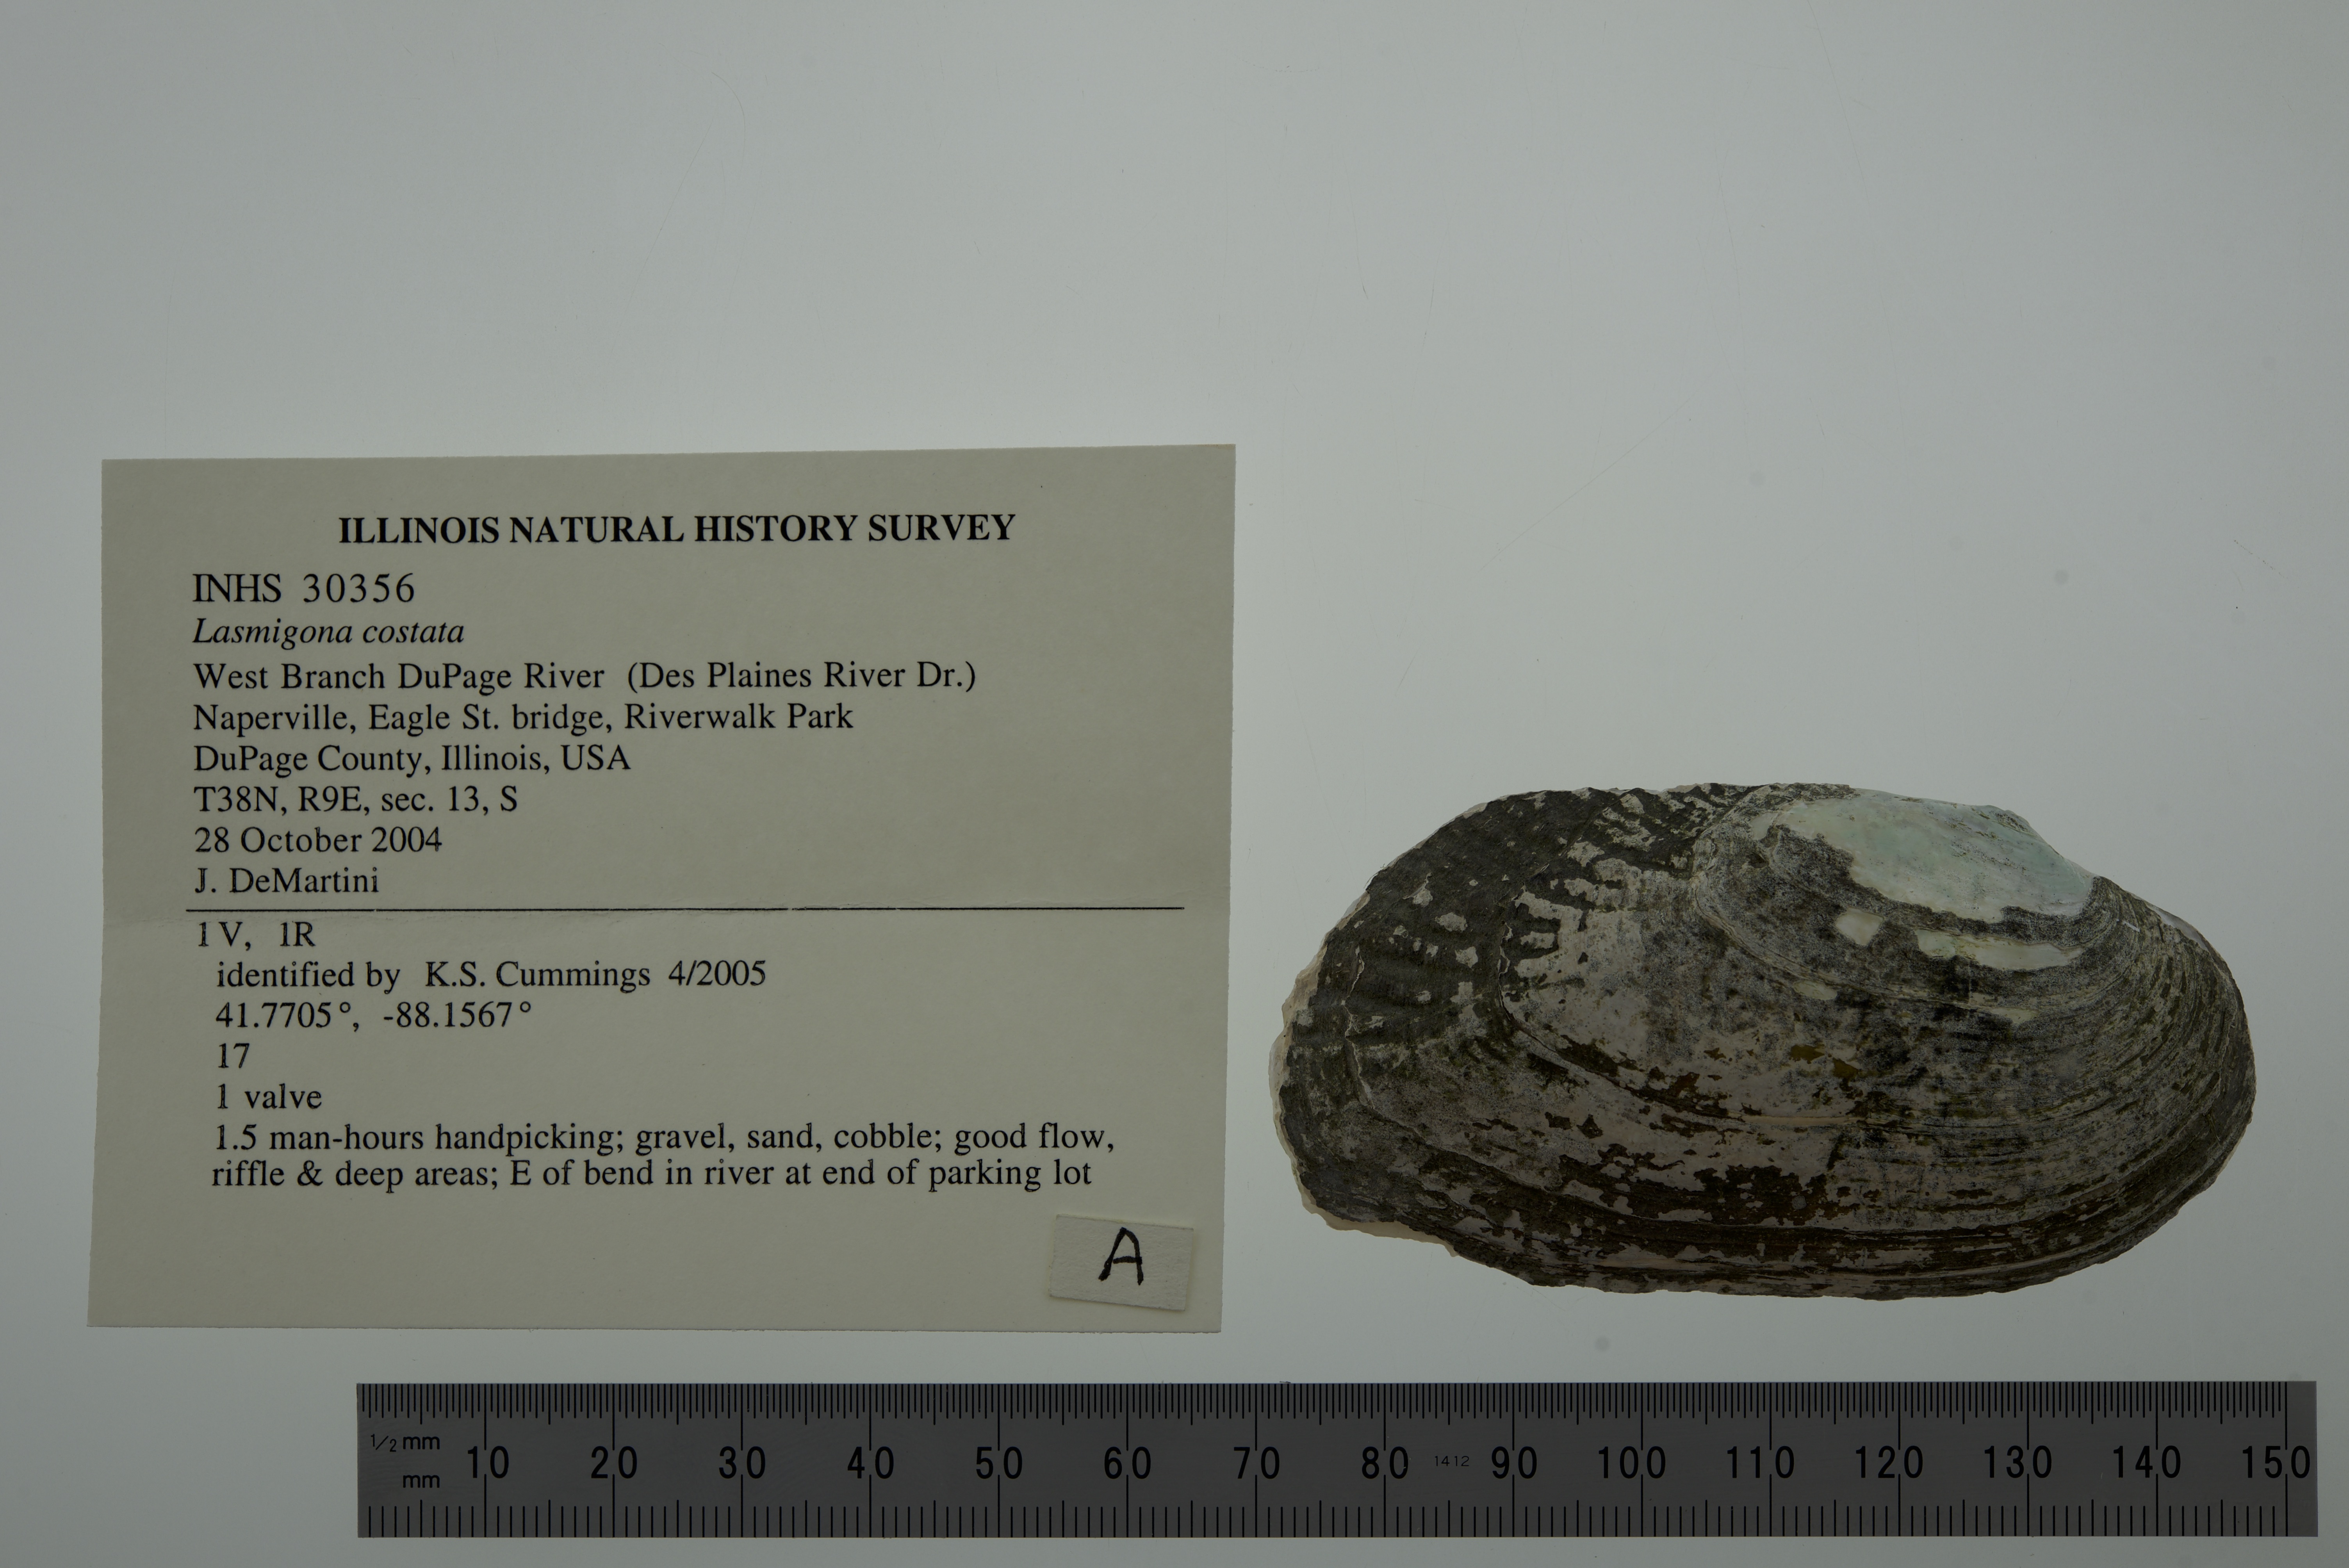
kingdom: Animalia
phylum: Mollusca
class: Bivalvia
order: Unionida
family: Unionidae
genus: Lasmigona
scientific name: Lasmigona costata
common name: Flutedshell
